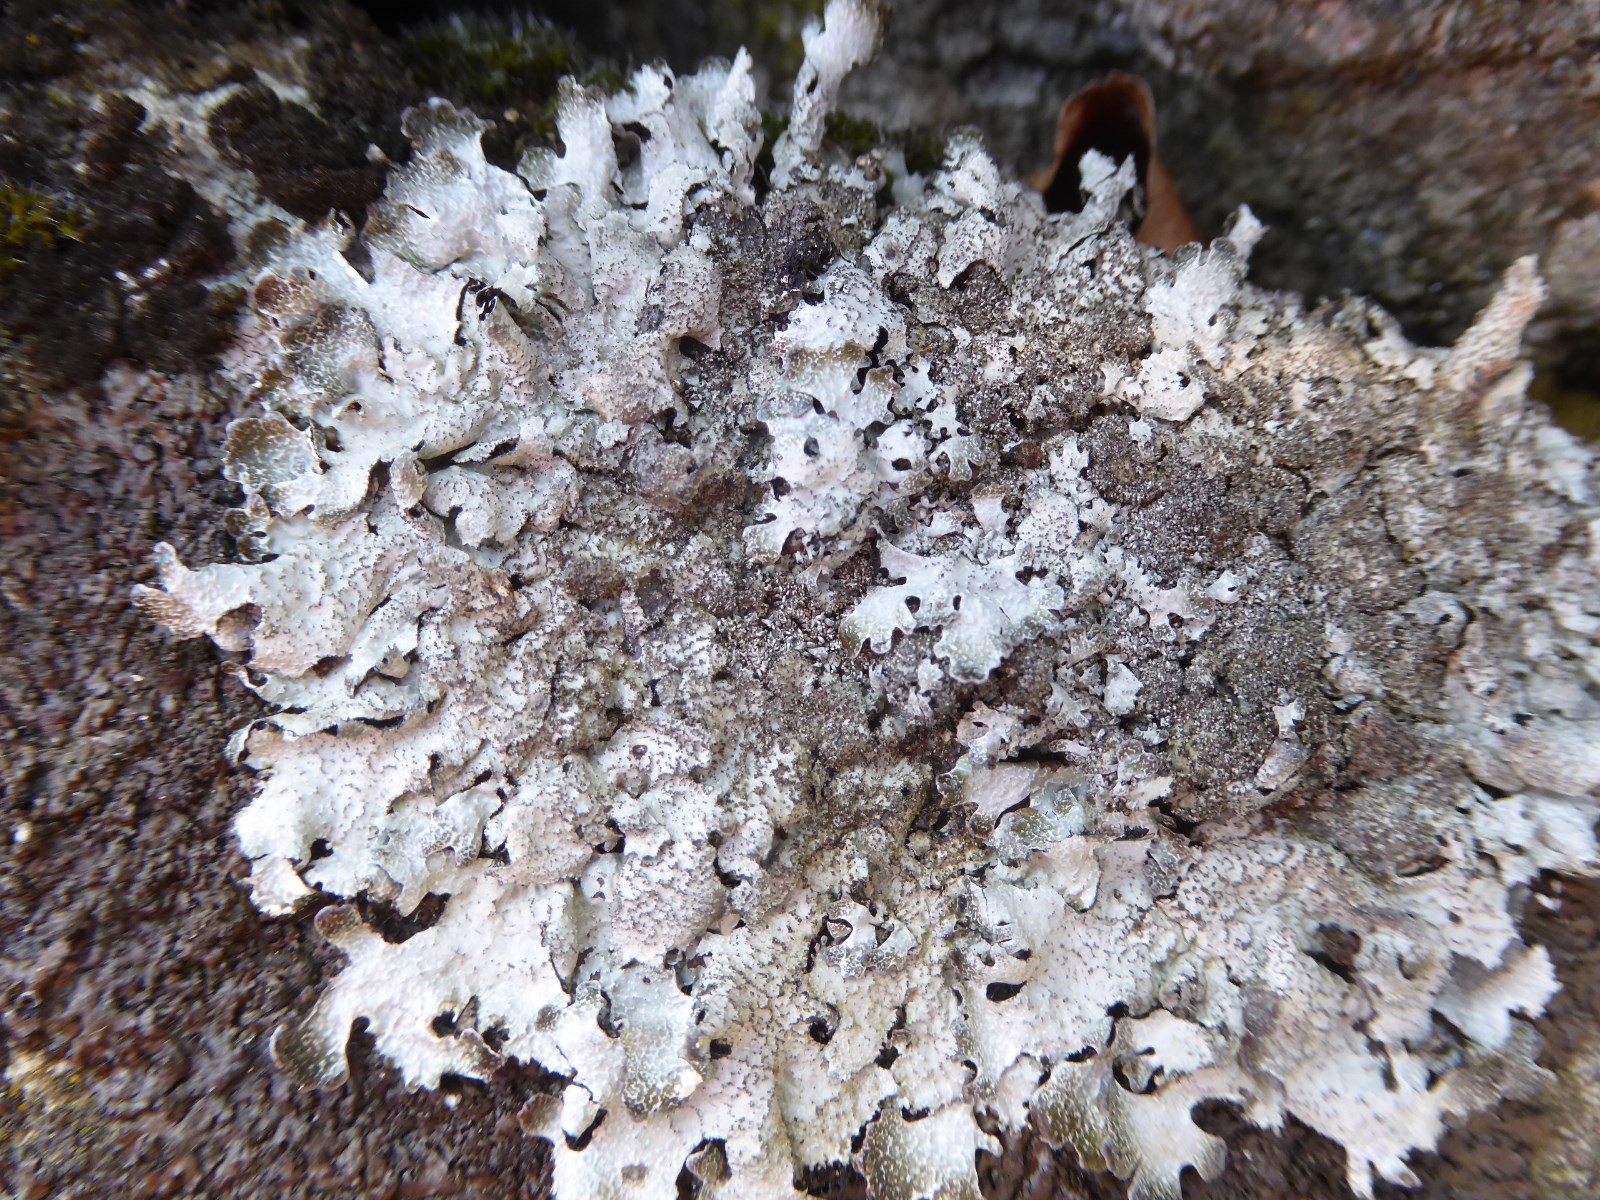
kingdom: Fungi
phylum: Ascomycota
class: Lecanoromycetes
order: Lecanorales
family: Parmeliaceae
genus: Parmelia
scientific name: Parmelia saxatilis
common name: farve-skållav
